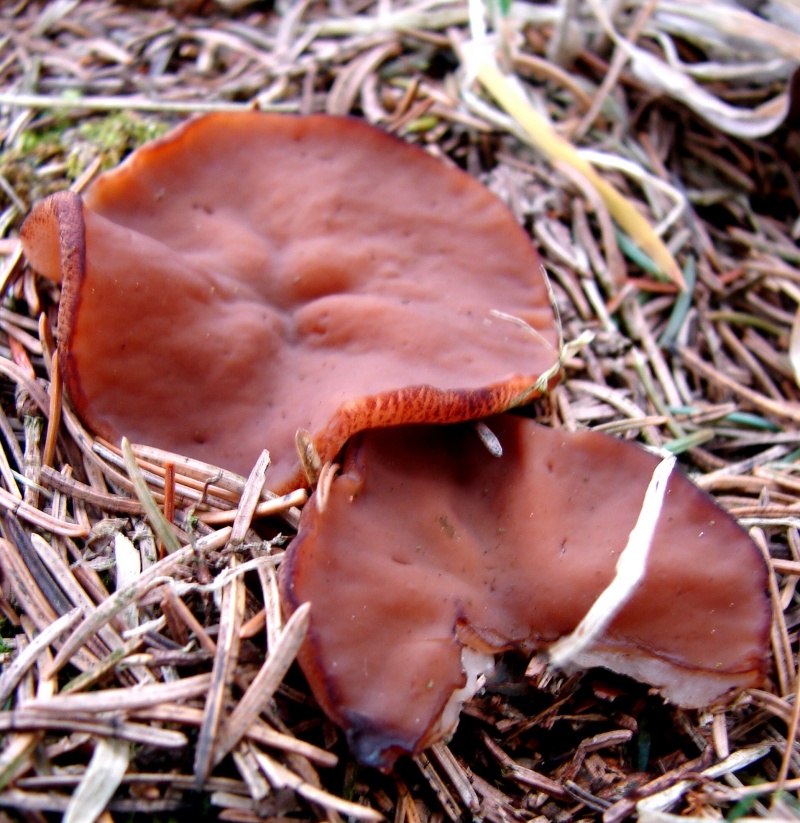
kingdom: Fungi
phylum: Ascomycota
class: Pezizomycetes
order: Pezizales
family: Discinaceae
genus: Discina
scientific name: Discina ancilis
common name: udbredt stenmorkel
